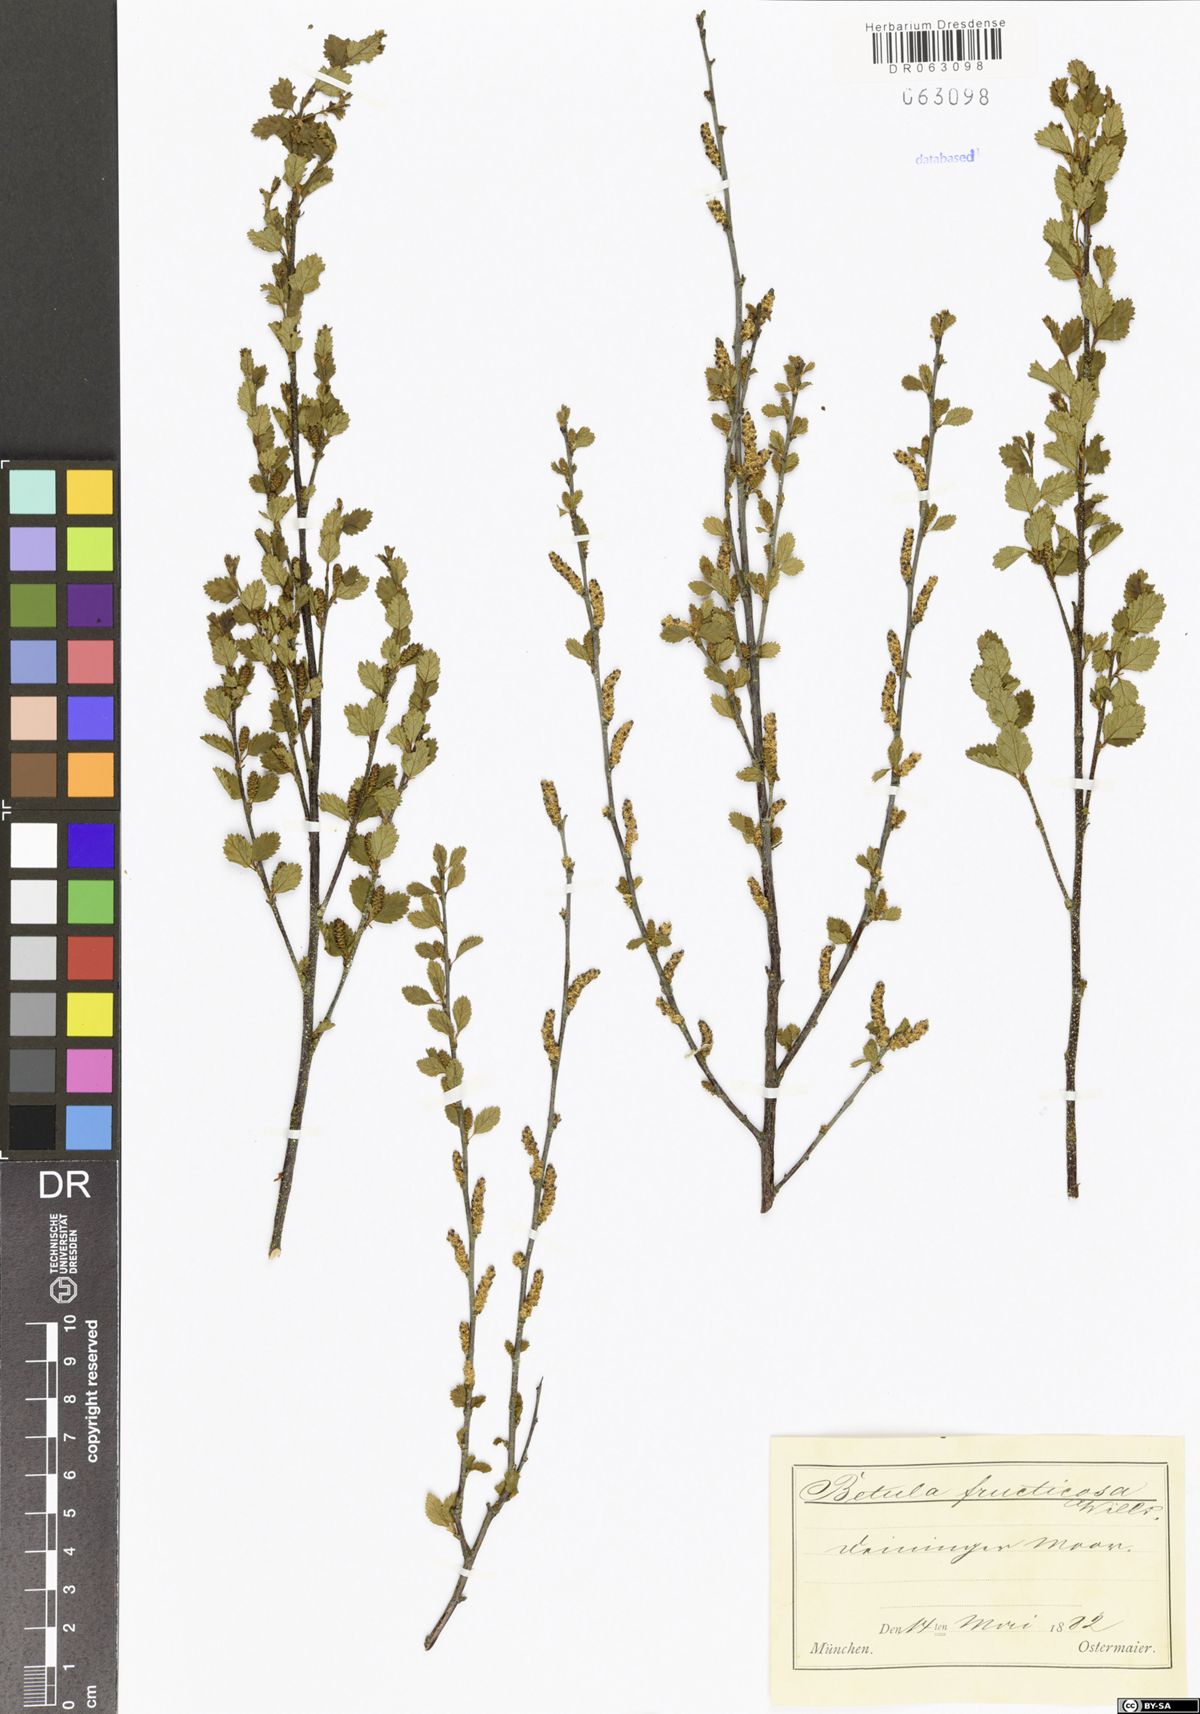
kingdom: Plantae
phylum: Tracheophyta
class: Magnoliopsida
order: Fagales
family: Betulaceae
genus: Betula
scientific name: Betula fruticosa
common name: Japanese bog birch
